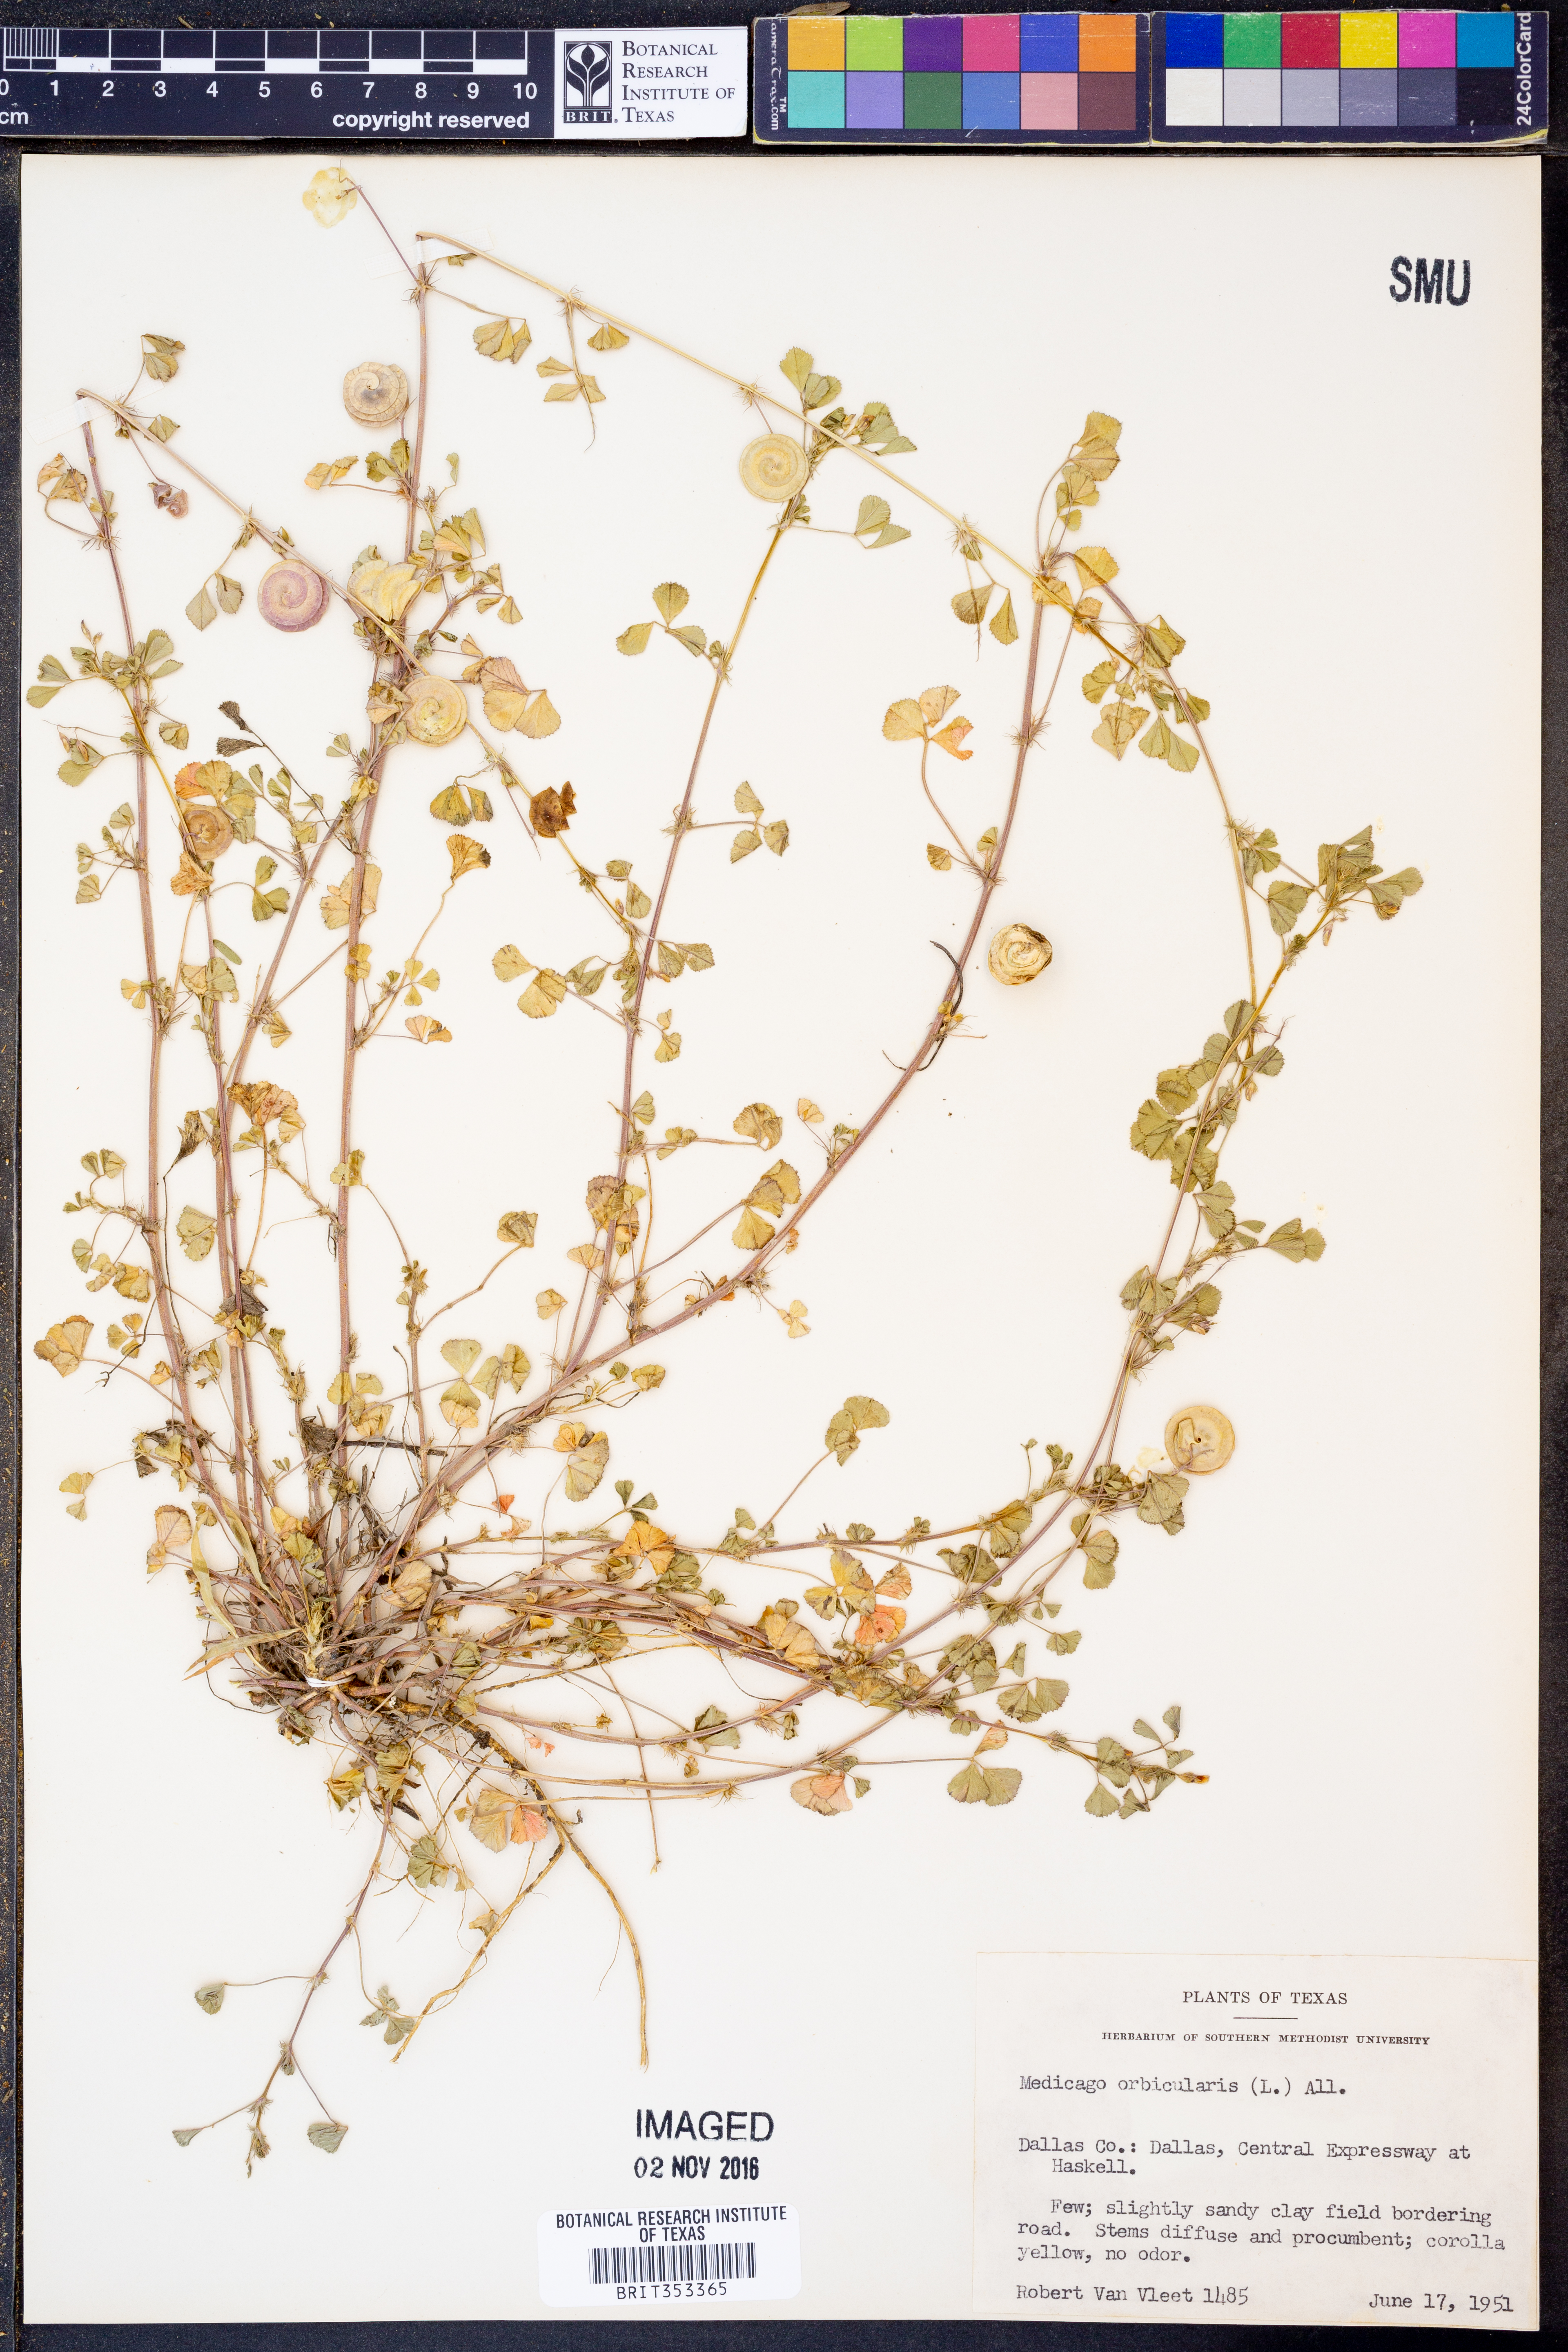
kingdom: Plantae
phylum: Tracheophyta
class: Magnoliopsida
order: Fabales
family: Fabaceae
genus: Medicago
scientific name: Medicago orbicularis
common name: Button medick
